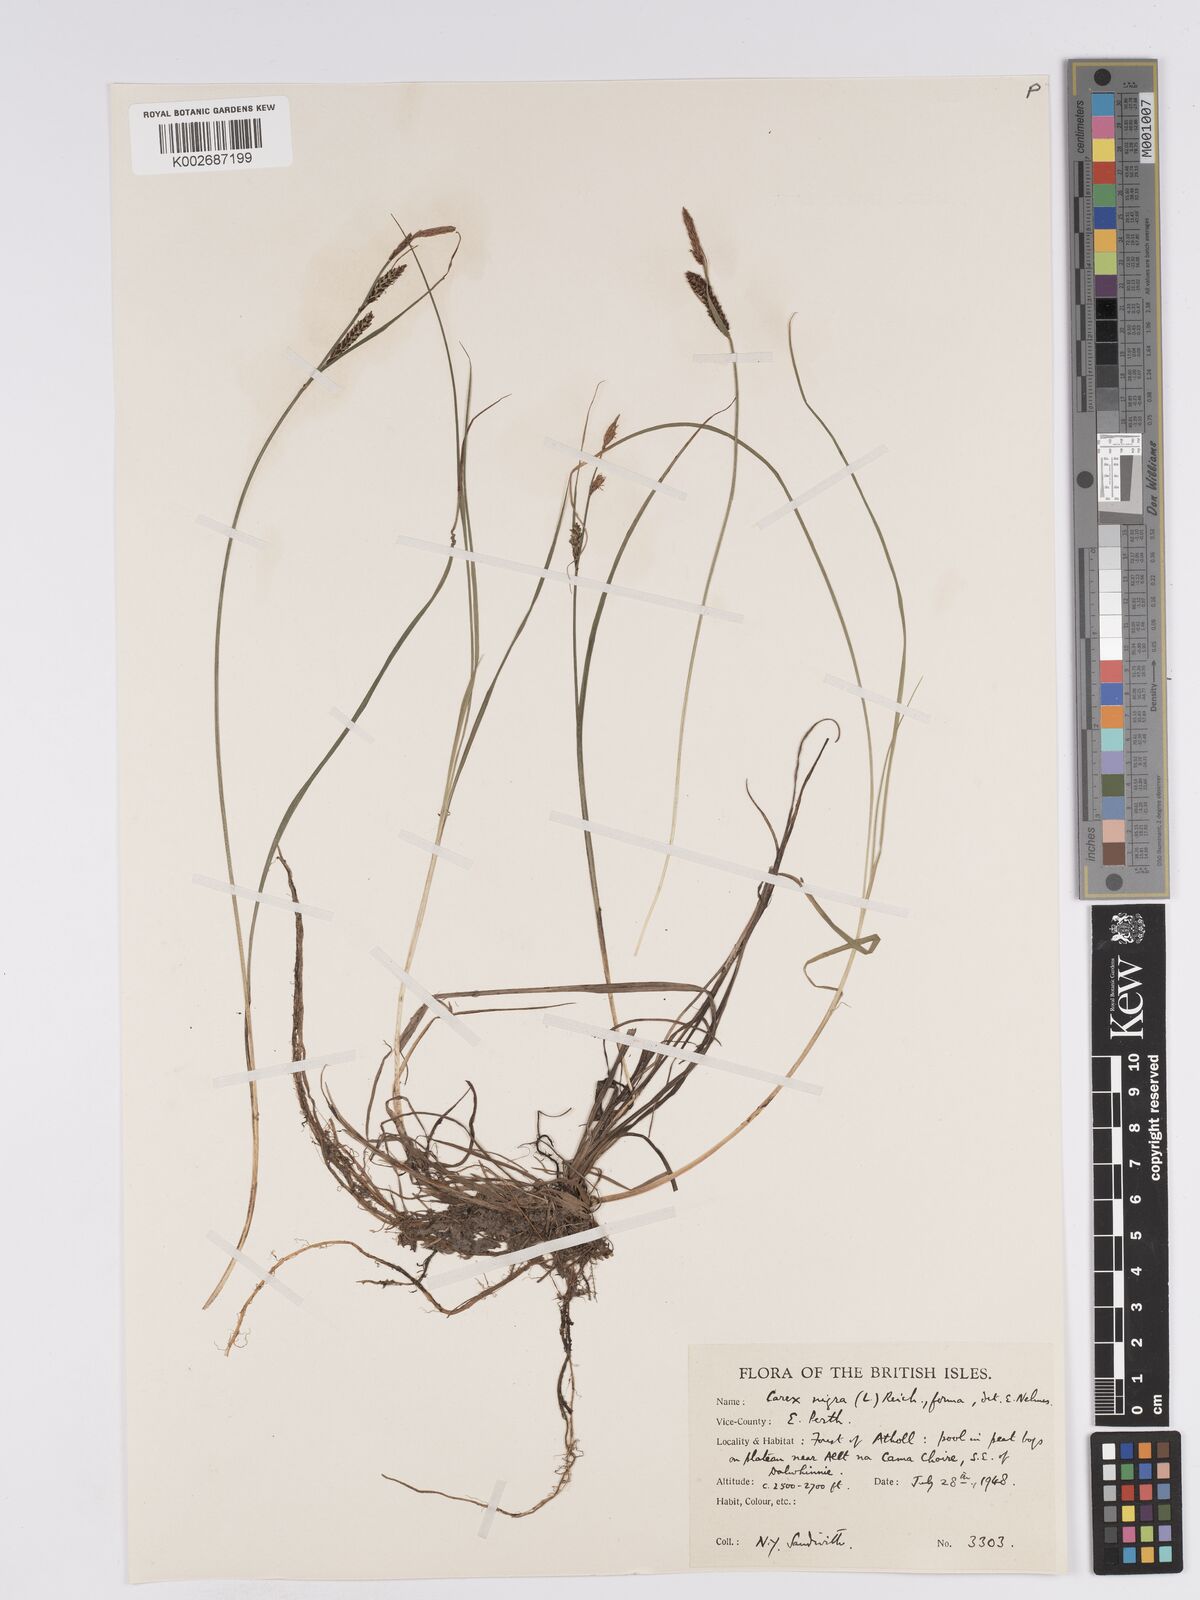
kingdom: Plantae
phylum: Tracheophyta
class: Liliopsida
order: Poales
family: Cyperaceae
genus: Carex
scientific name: Carex nigra
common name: Common sedge
